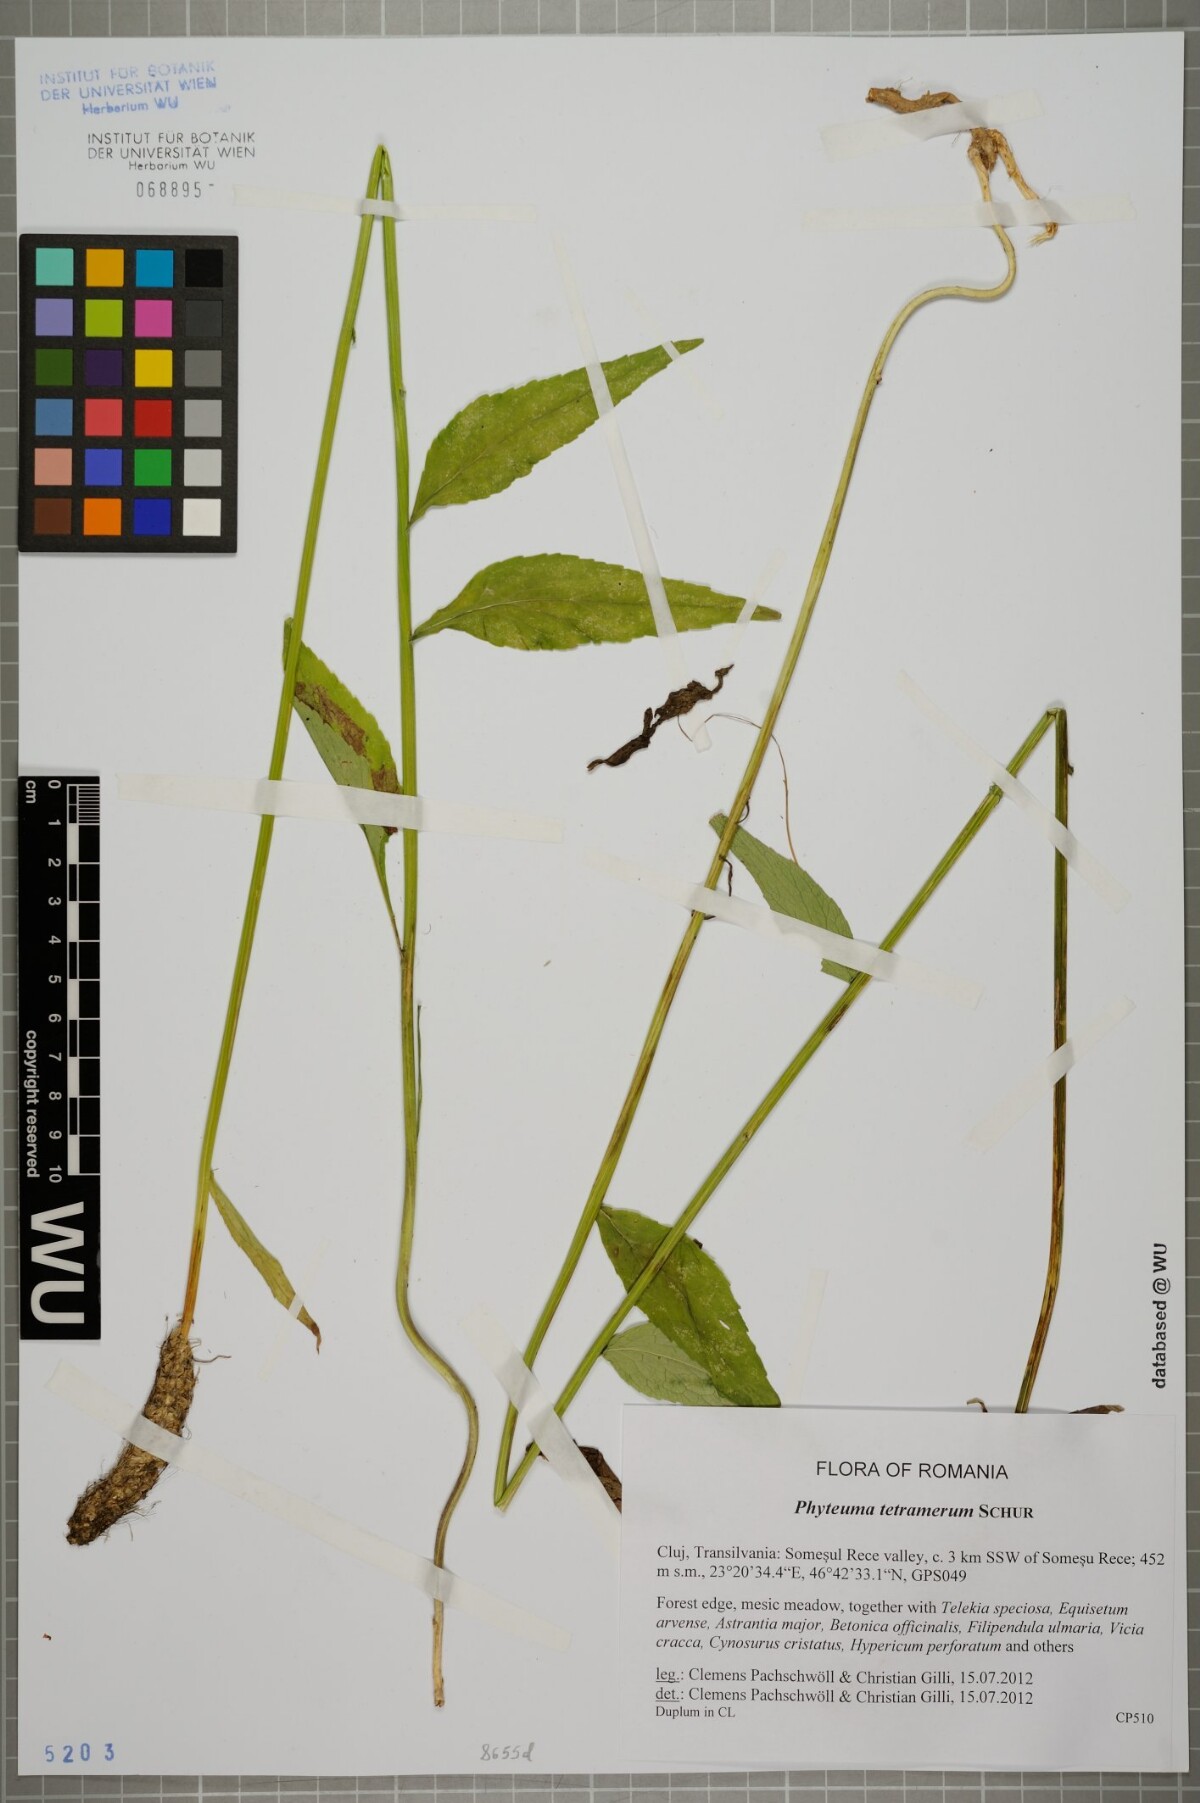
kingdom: Plantae
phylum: Tracheophyta
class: Magnoliopsida
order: Asterales
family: Campanulaceae
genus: Phyteuma
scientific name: Phyteuma tetramerum
